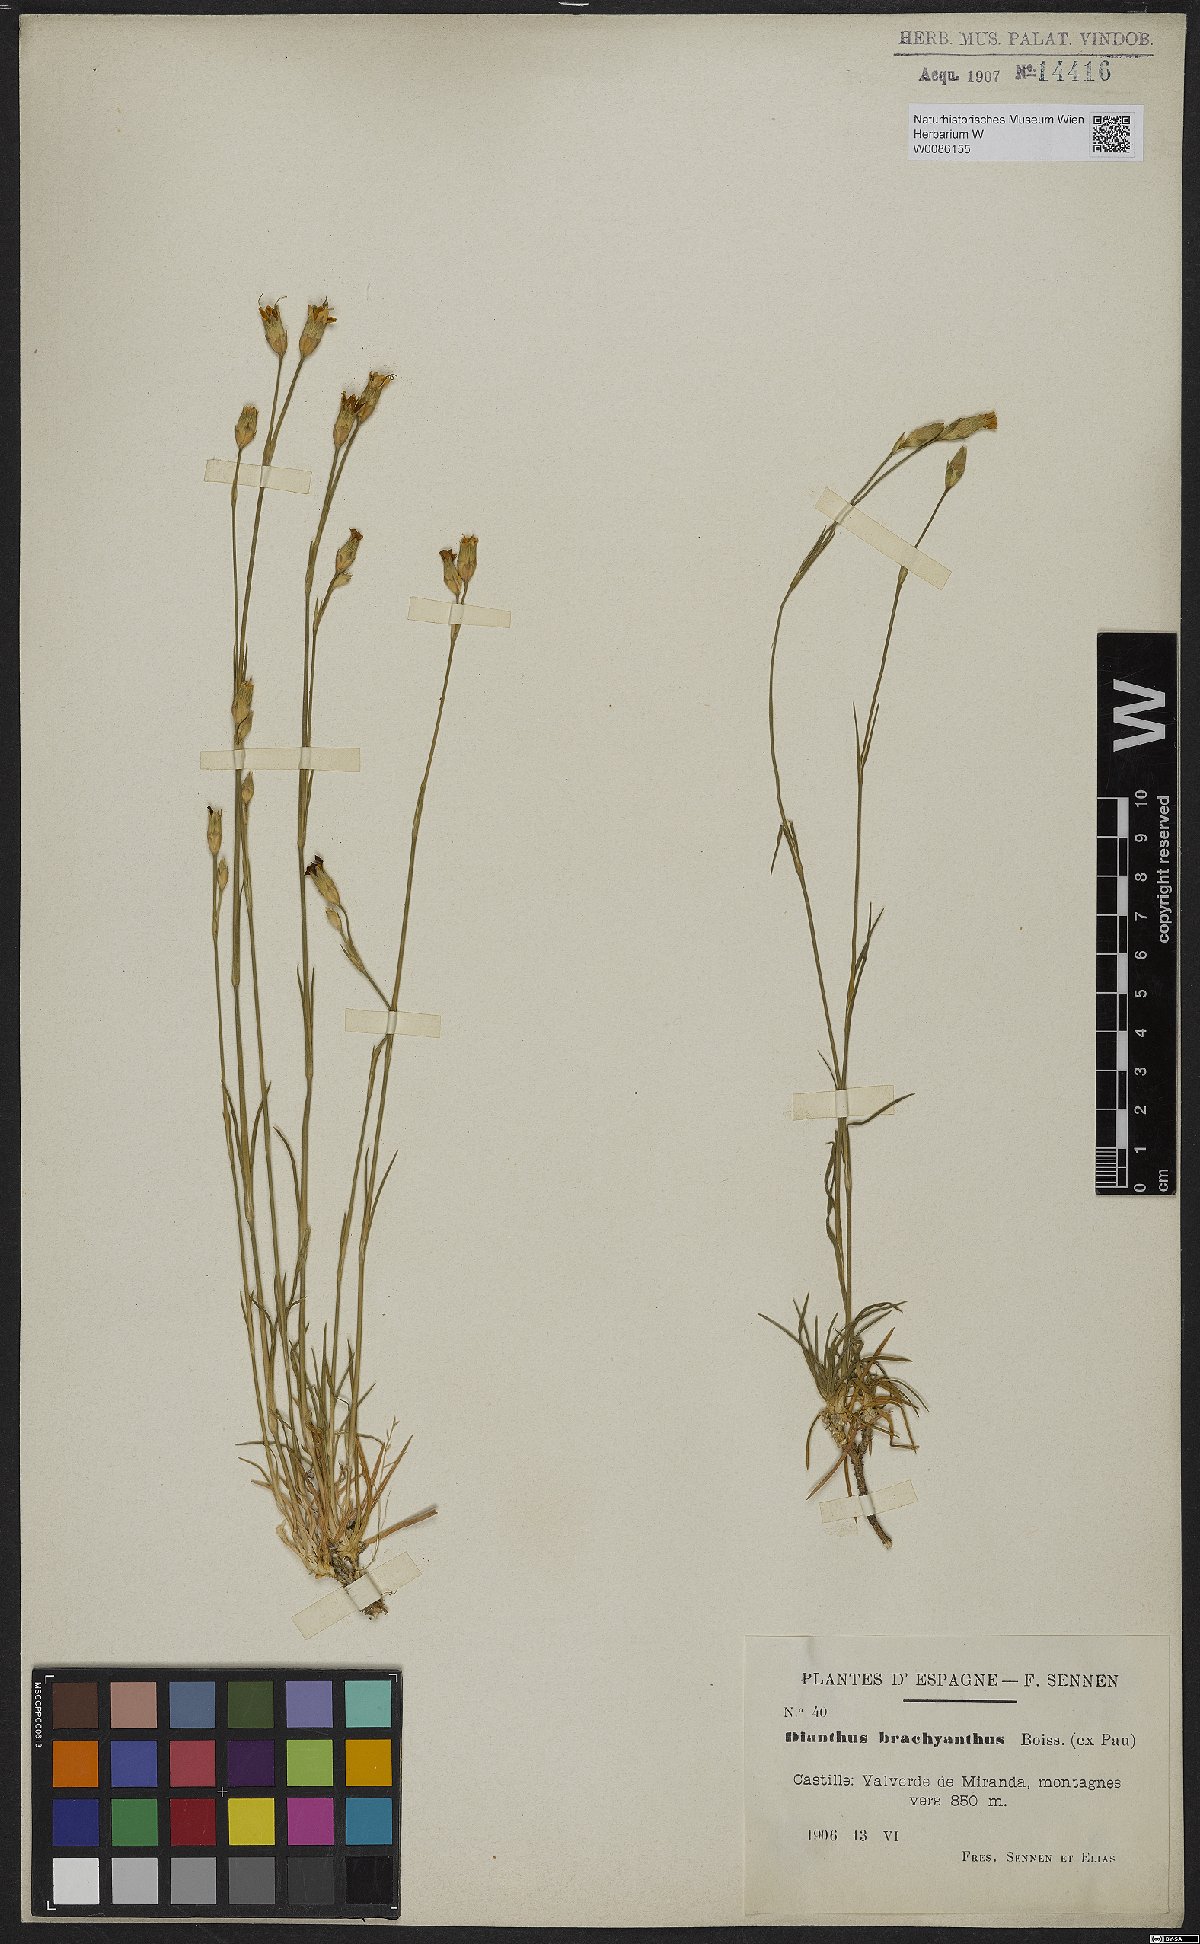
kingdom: Plantae
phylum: Tracheophyta
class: Magnoliopsida
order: Caryophyllales
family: Caryophyllaceae
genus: Dianthus
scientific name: Dianthus pungens
